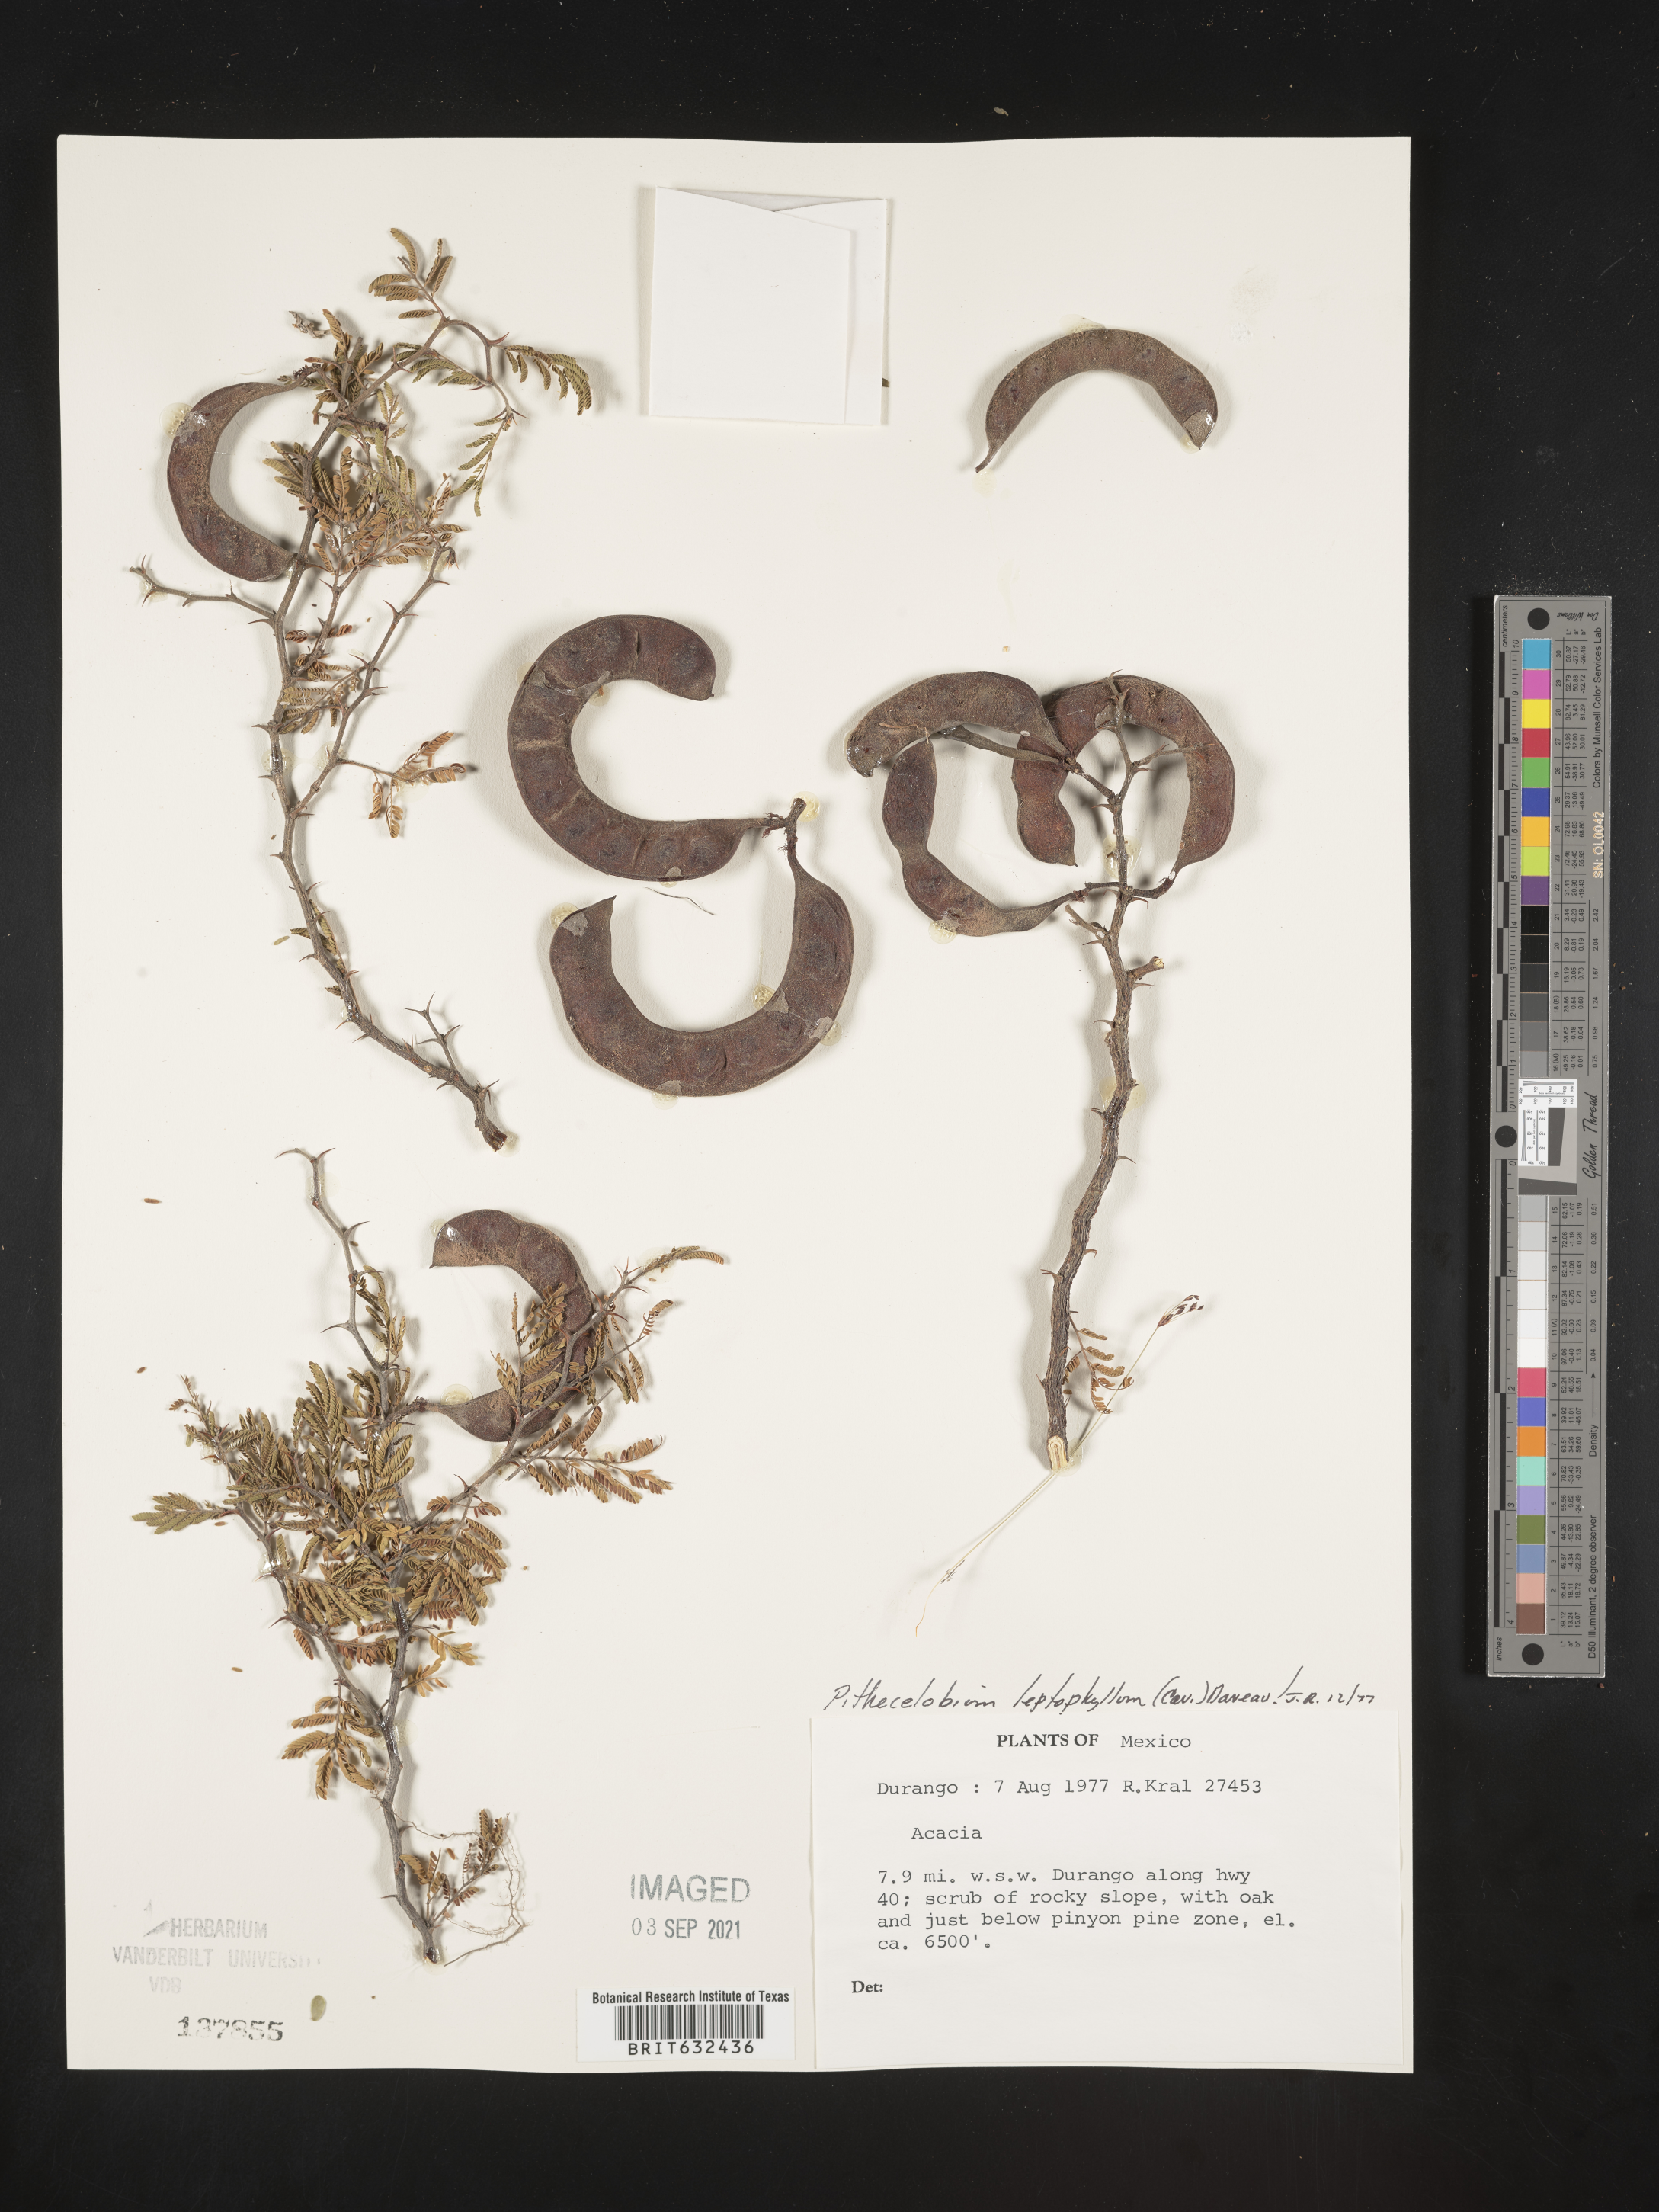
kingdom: Plantae
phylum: Tracheophyta
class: Magnoliopsida
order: Fabales
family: Fabaceae
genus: Pithecellobium
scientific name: Pithecellobium
